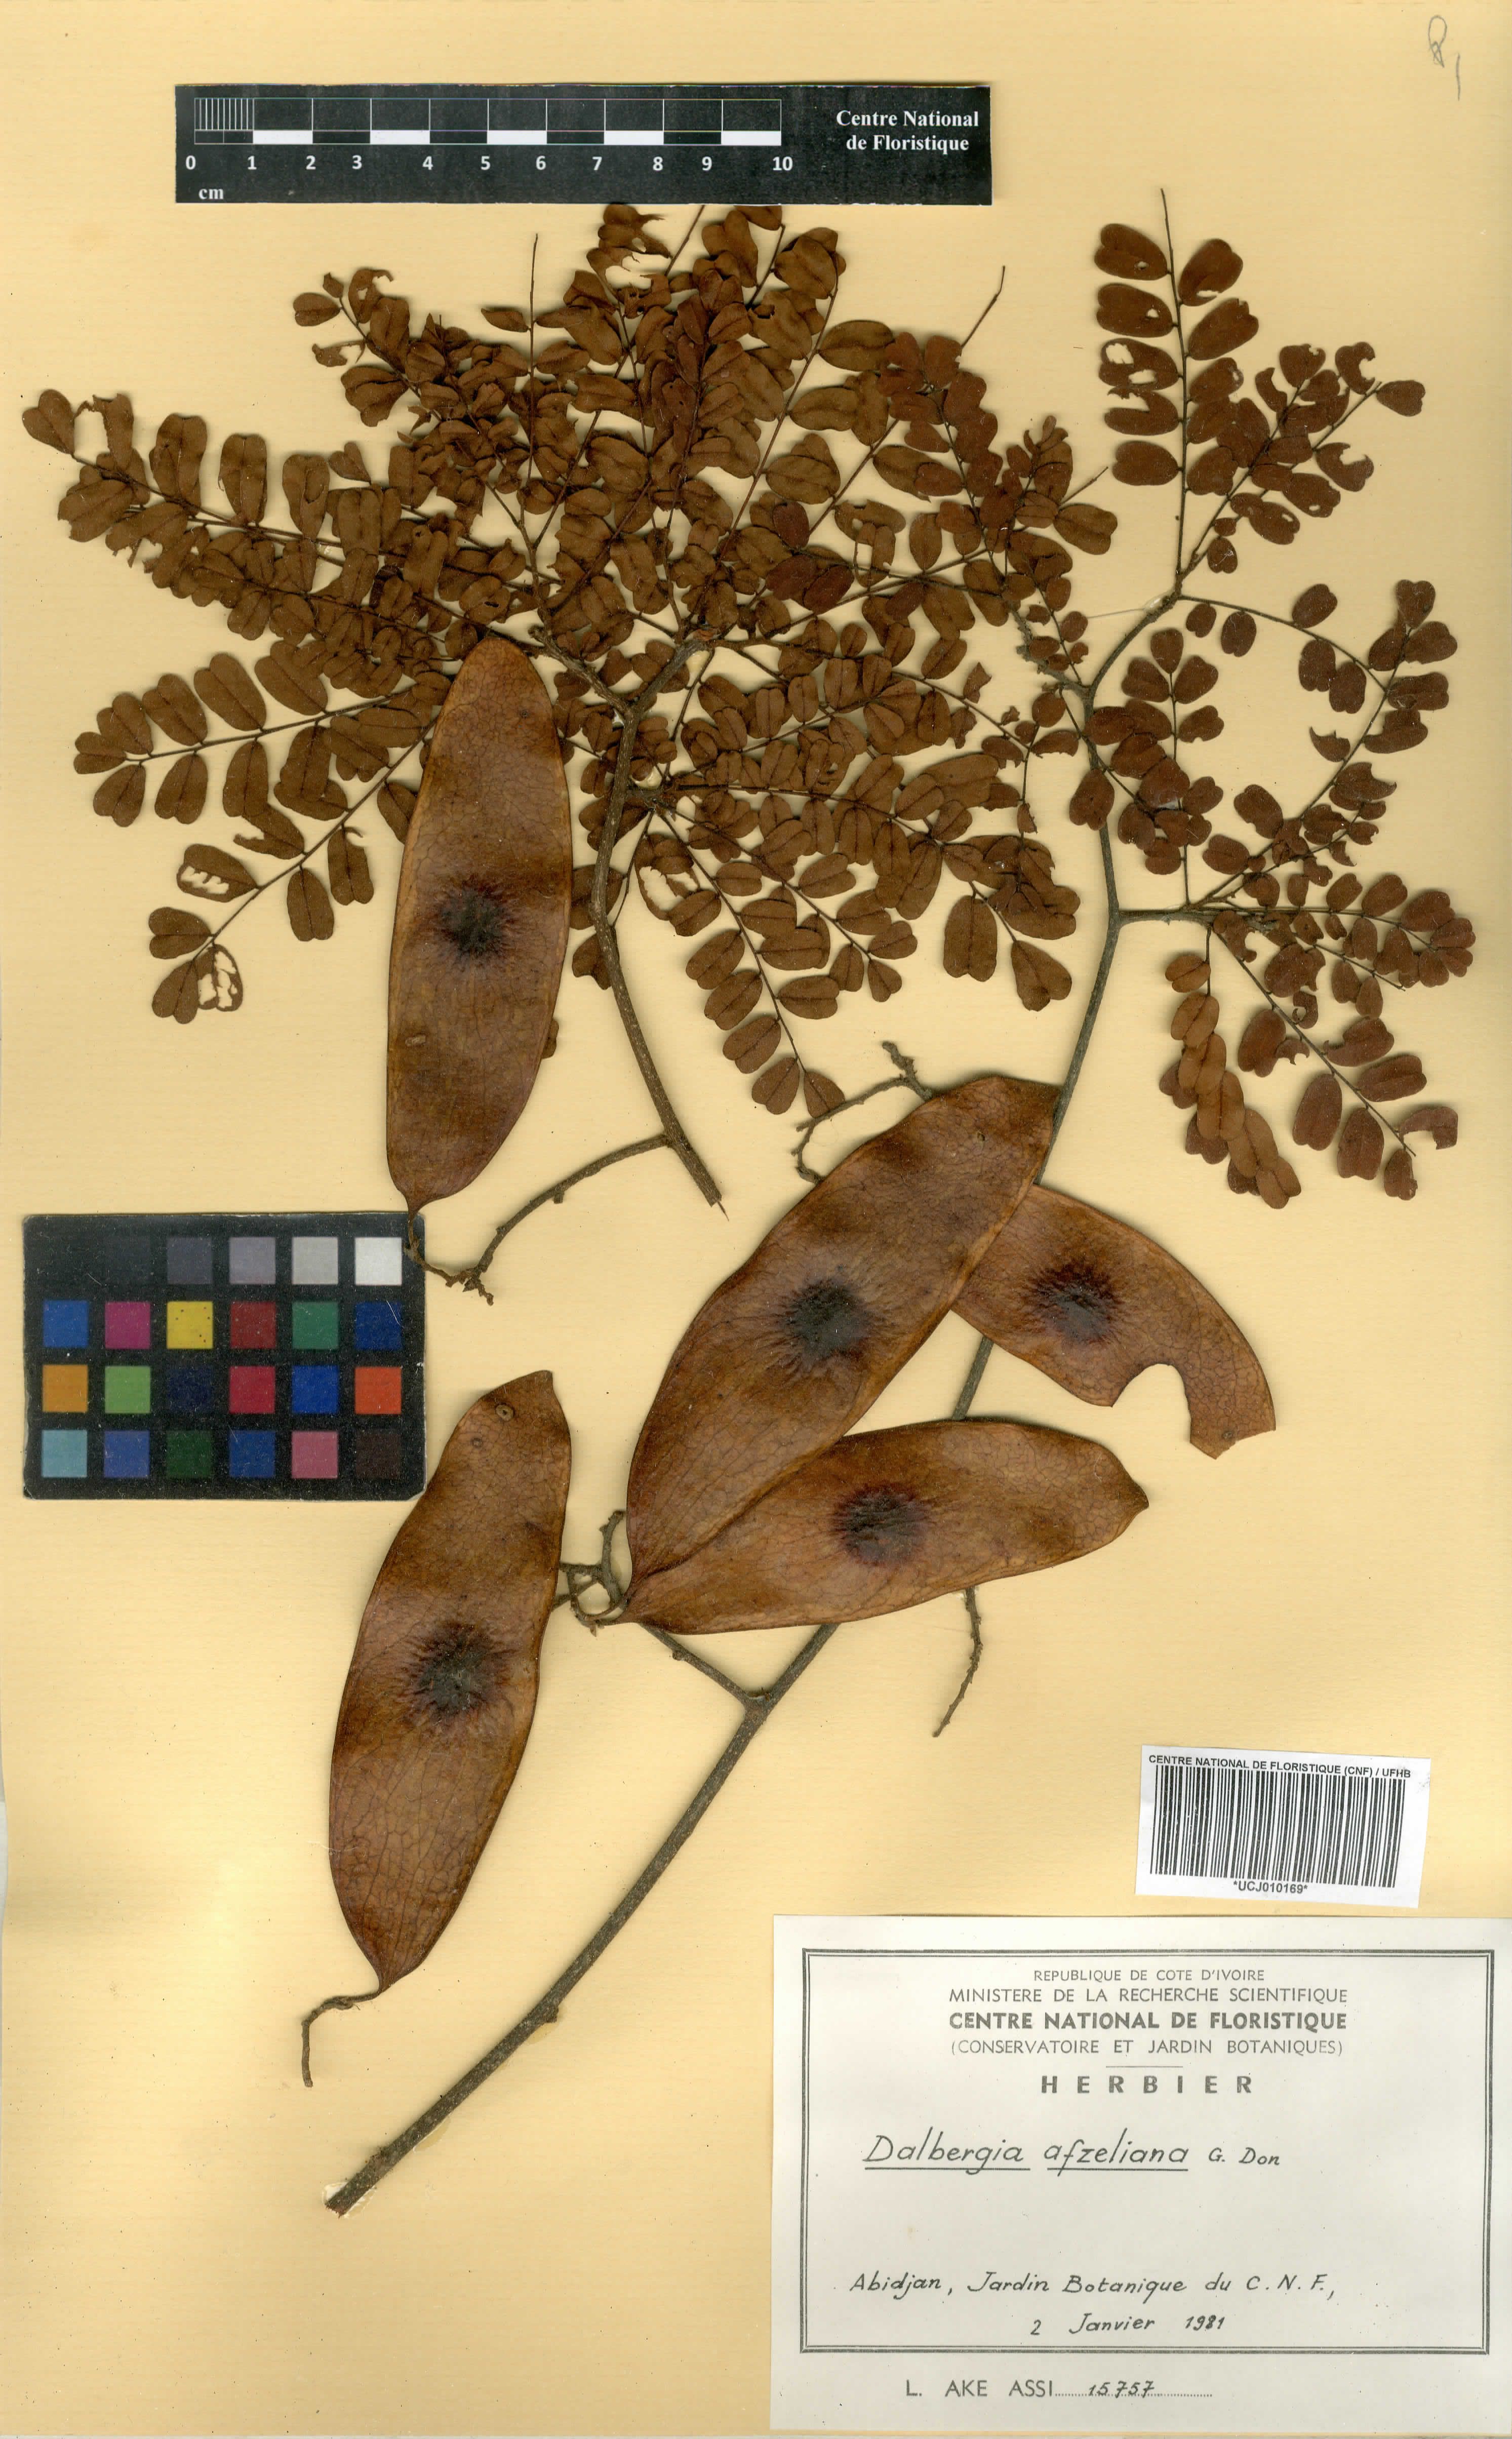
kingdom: Plantae
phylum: Tracheophyta
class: Magnoliopsida
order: Fabales
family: Fabaceae
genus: Dalbergia
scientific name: Dalbergia afzeliana
